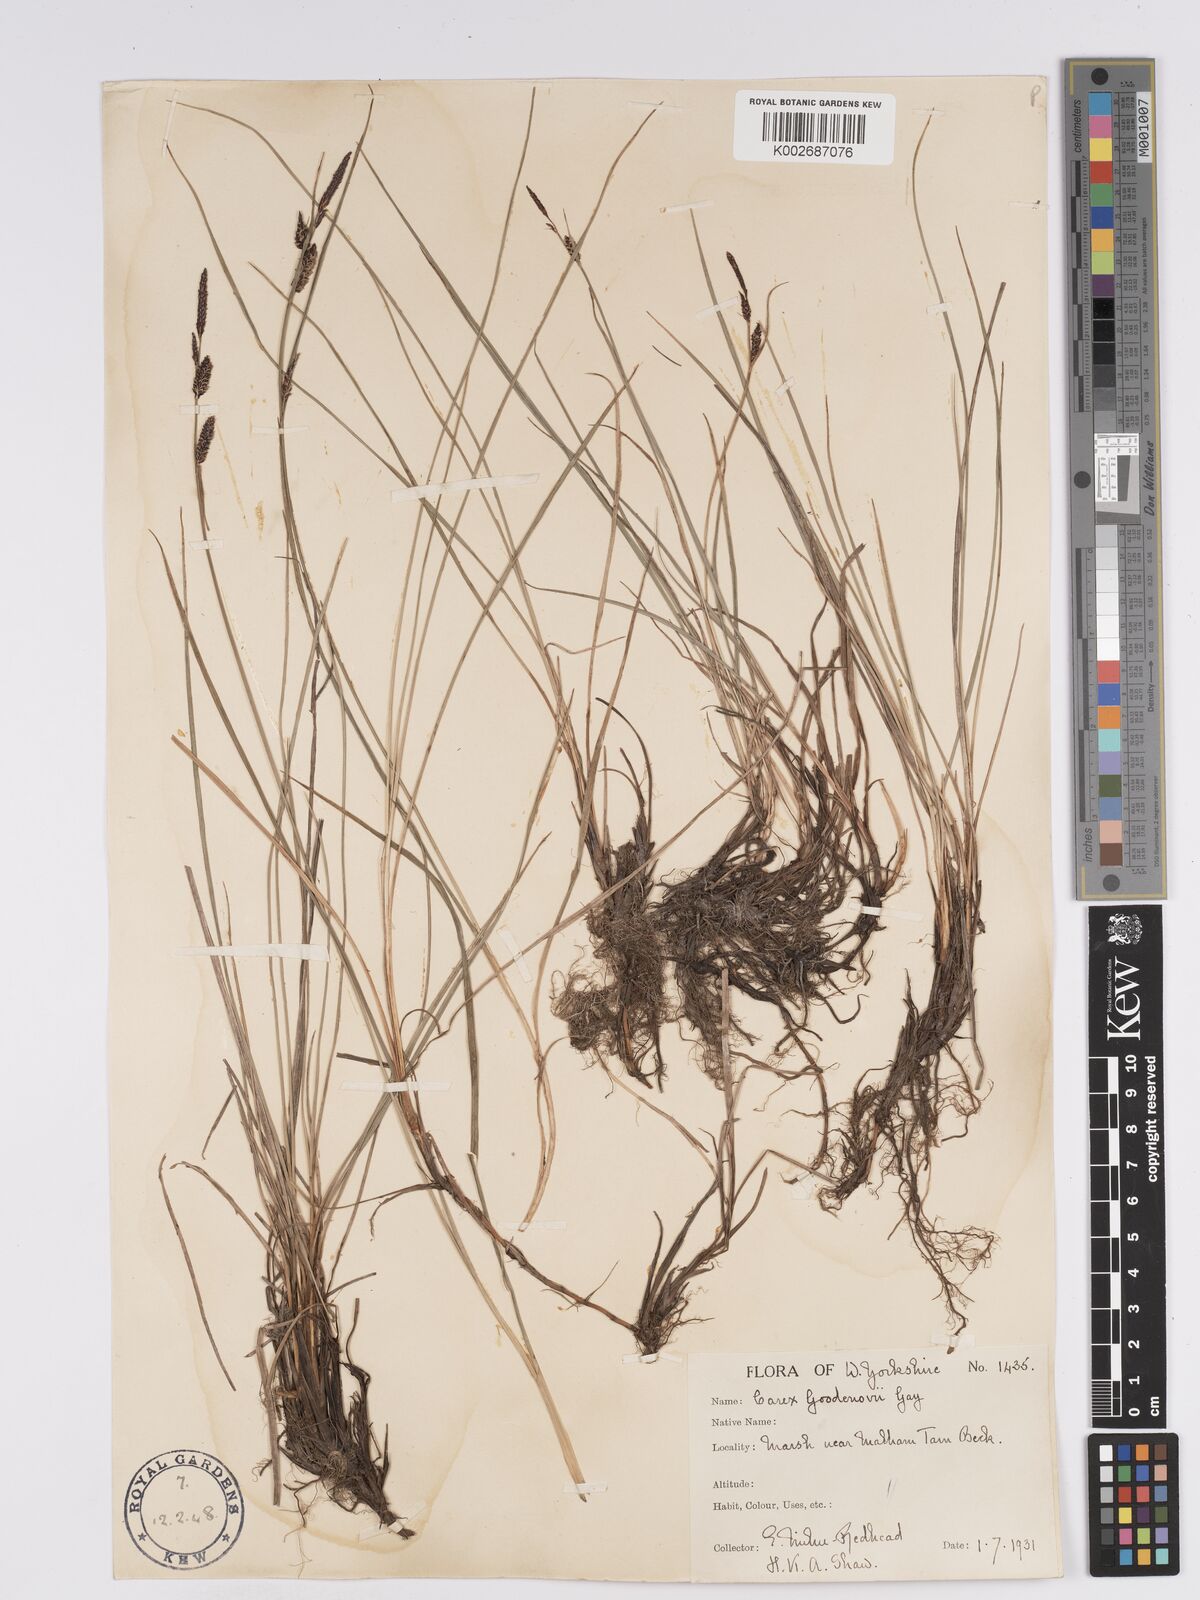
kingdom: Plantae
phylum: Tracheophyta
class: Liliopsida
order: Poales
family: Cyperaceae
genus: Carex
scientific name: Carex nigra
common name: Common sedge
